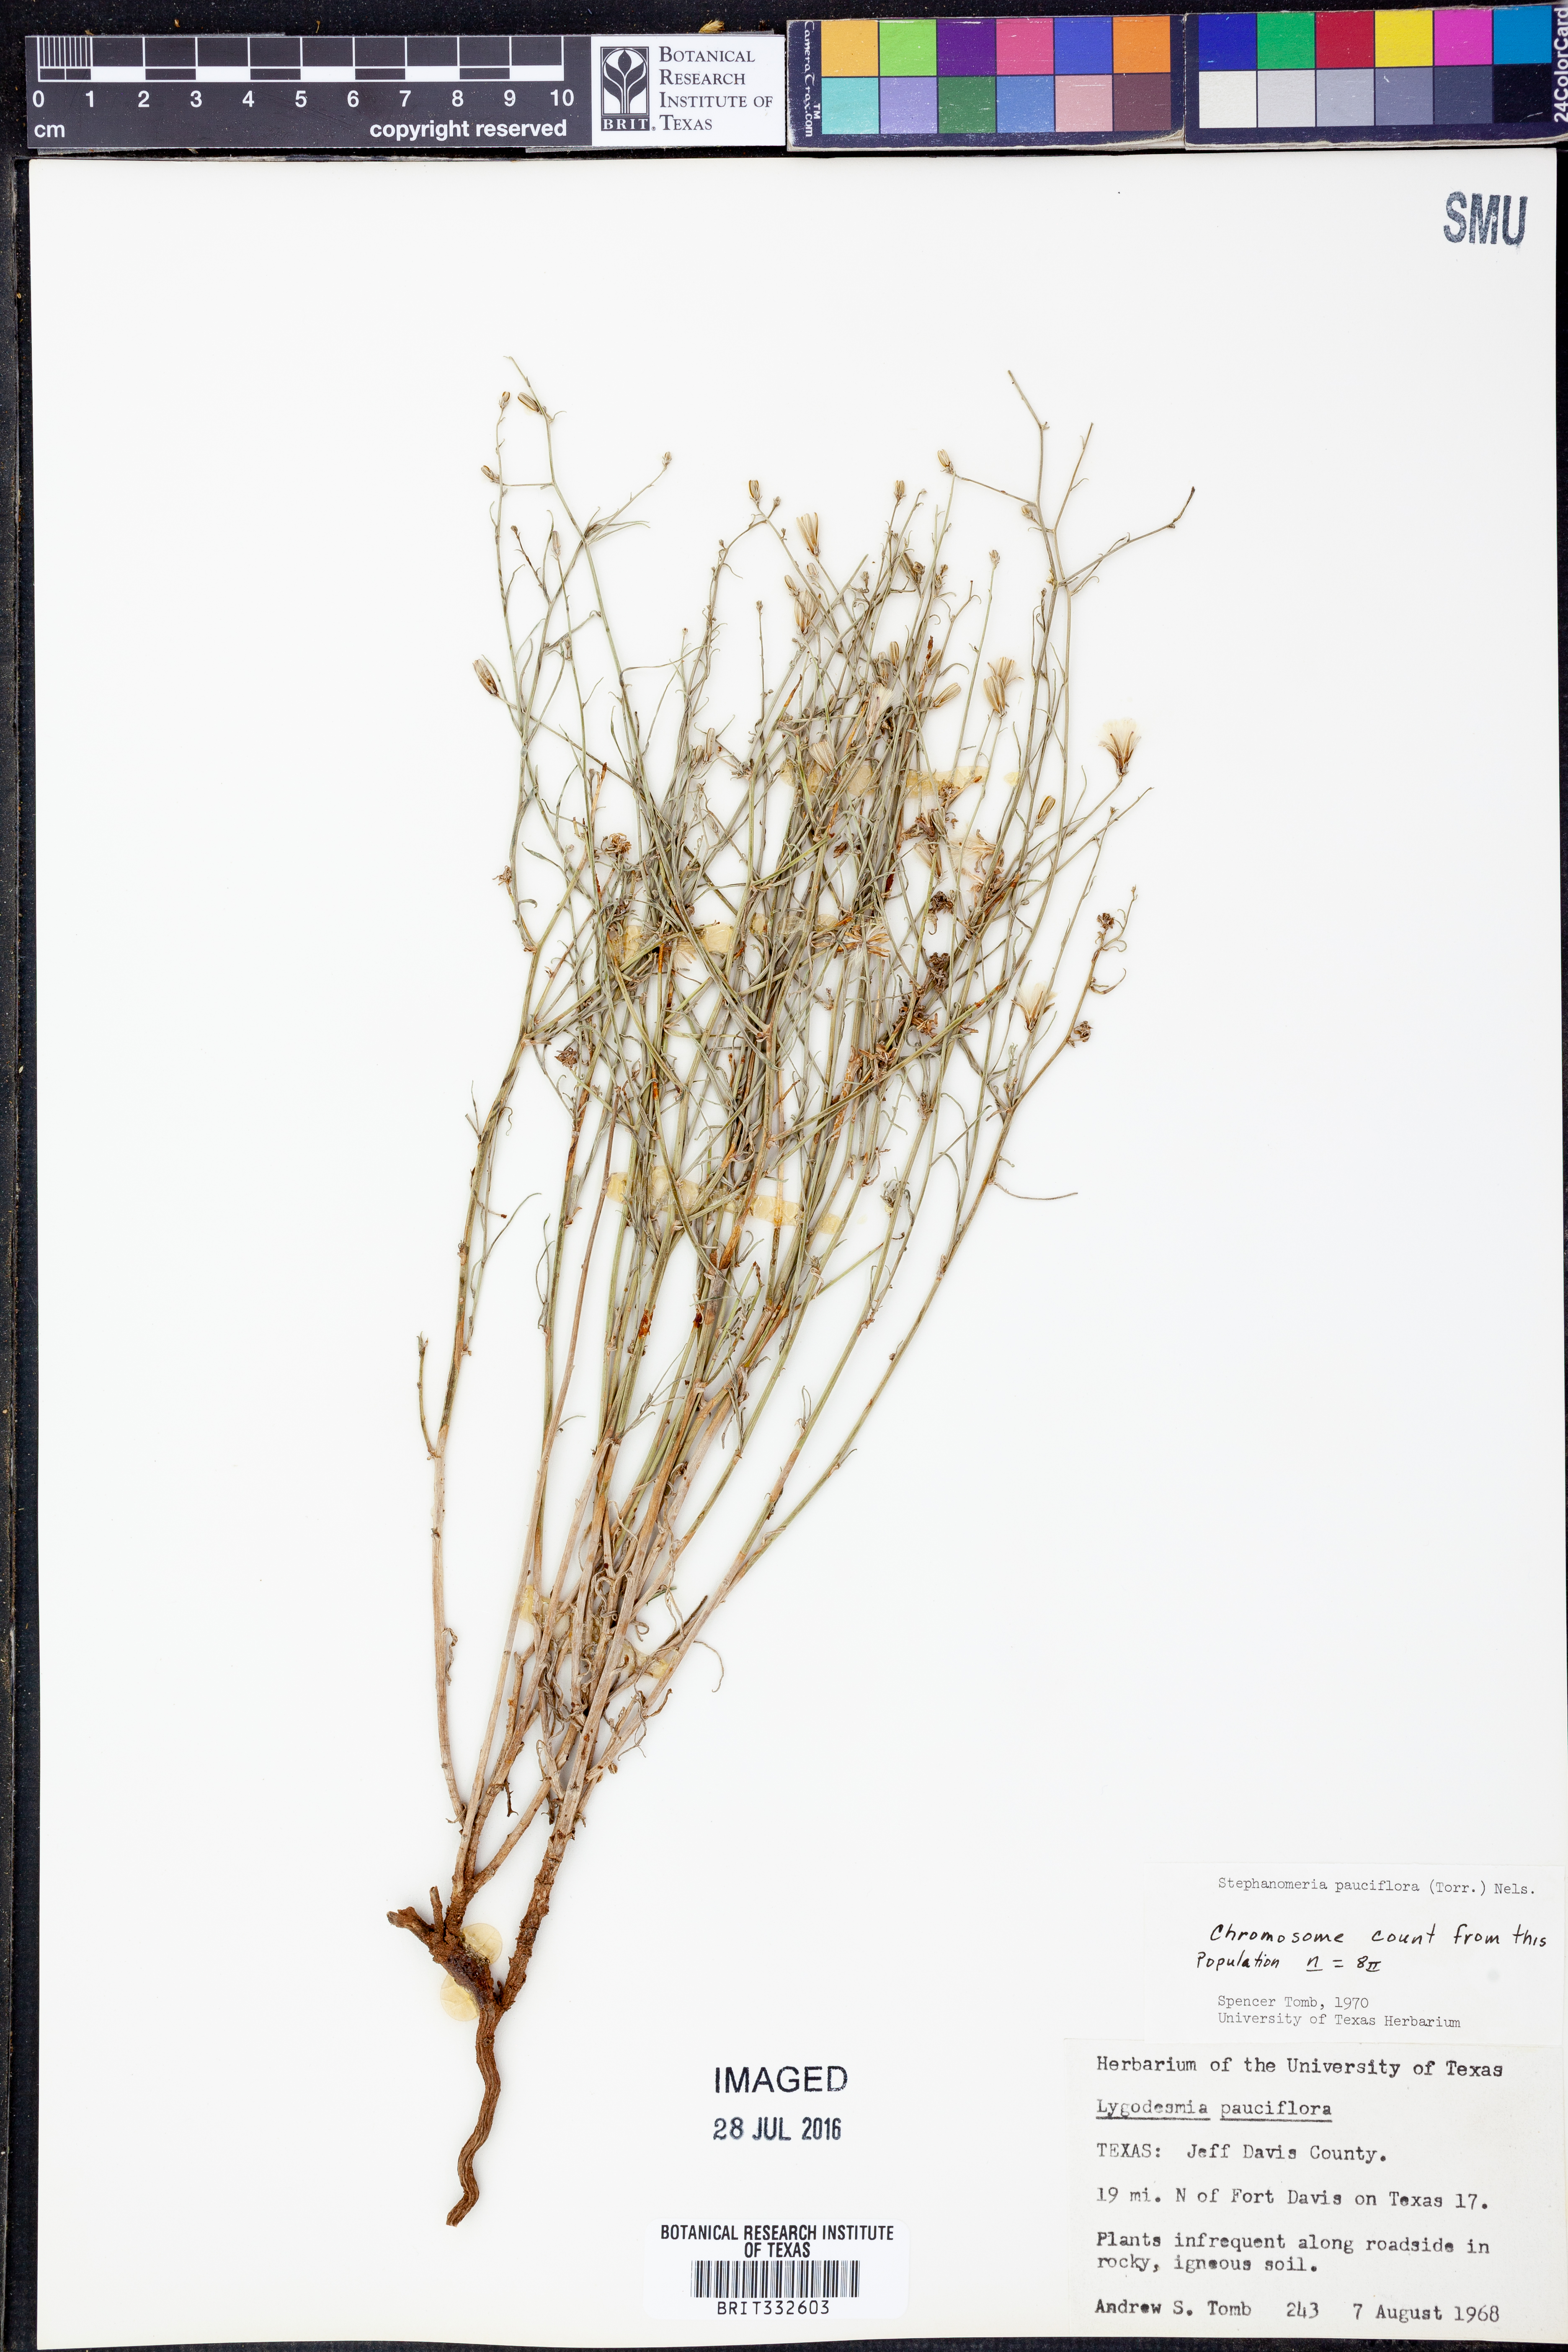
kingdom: Plantae
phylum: Tracheophyta
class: Magnoliopsida
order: Asterales
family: Asteraceae
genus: Stephanomeria
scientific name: Stephanomeria pauciflora
